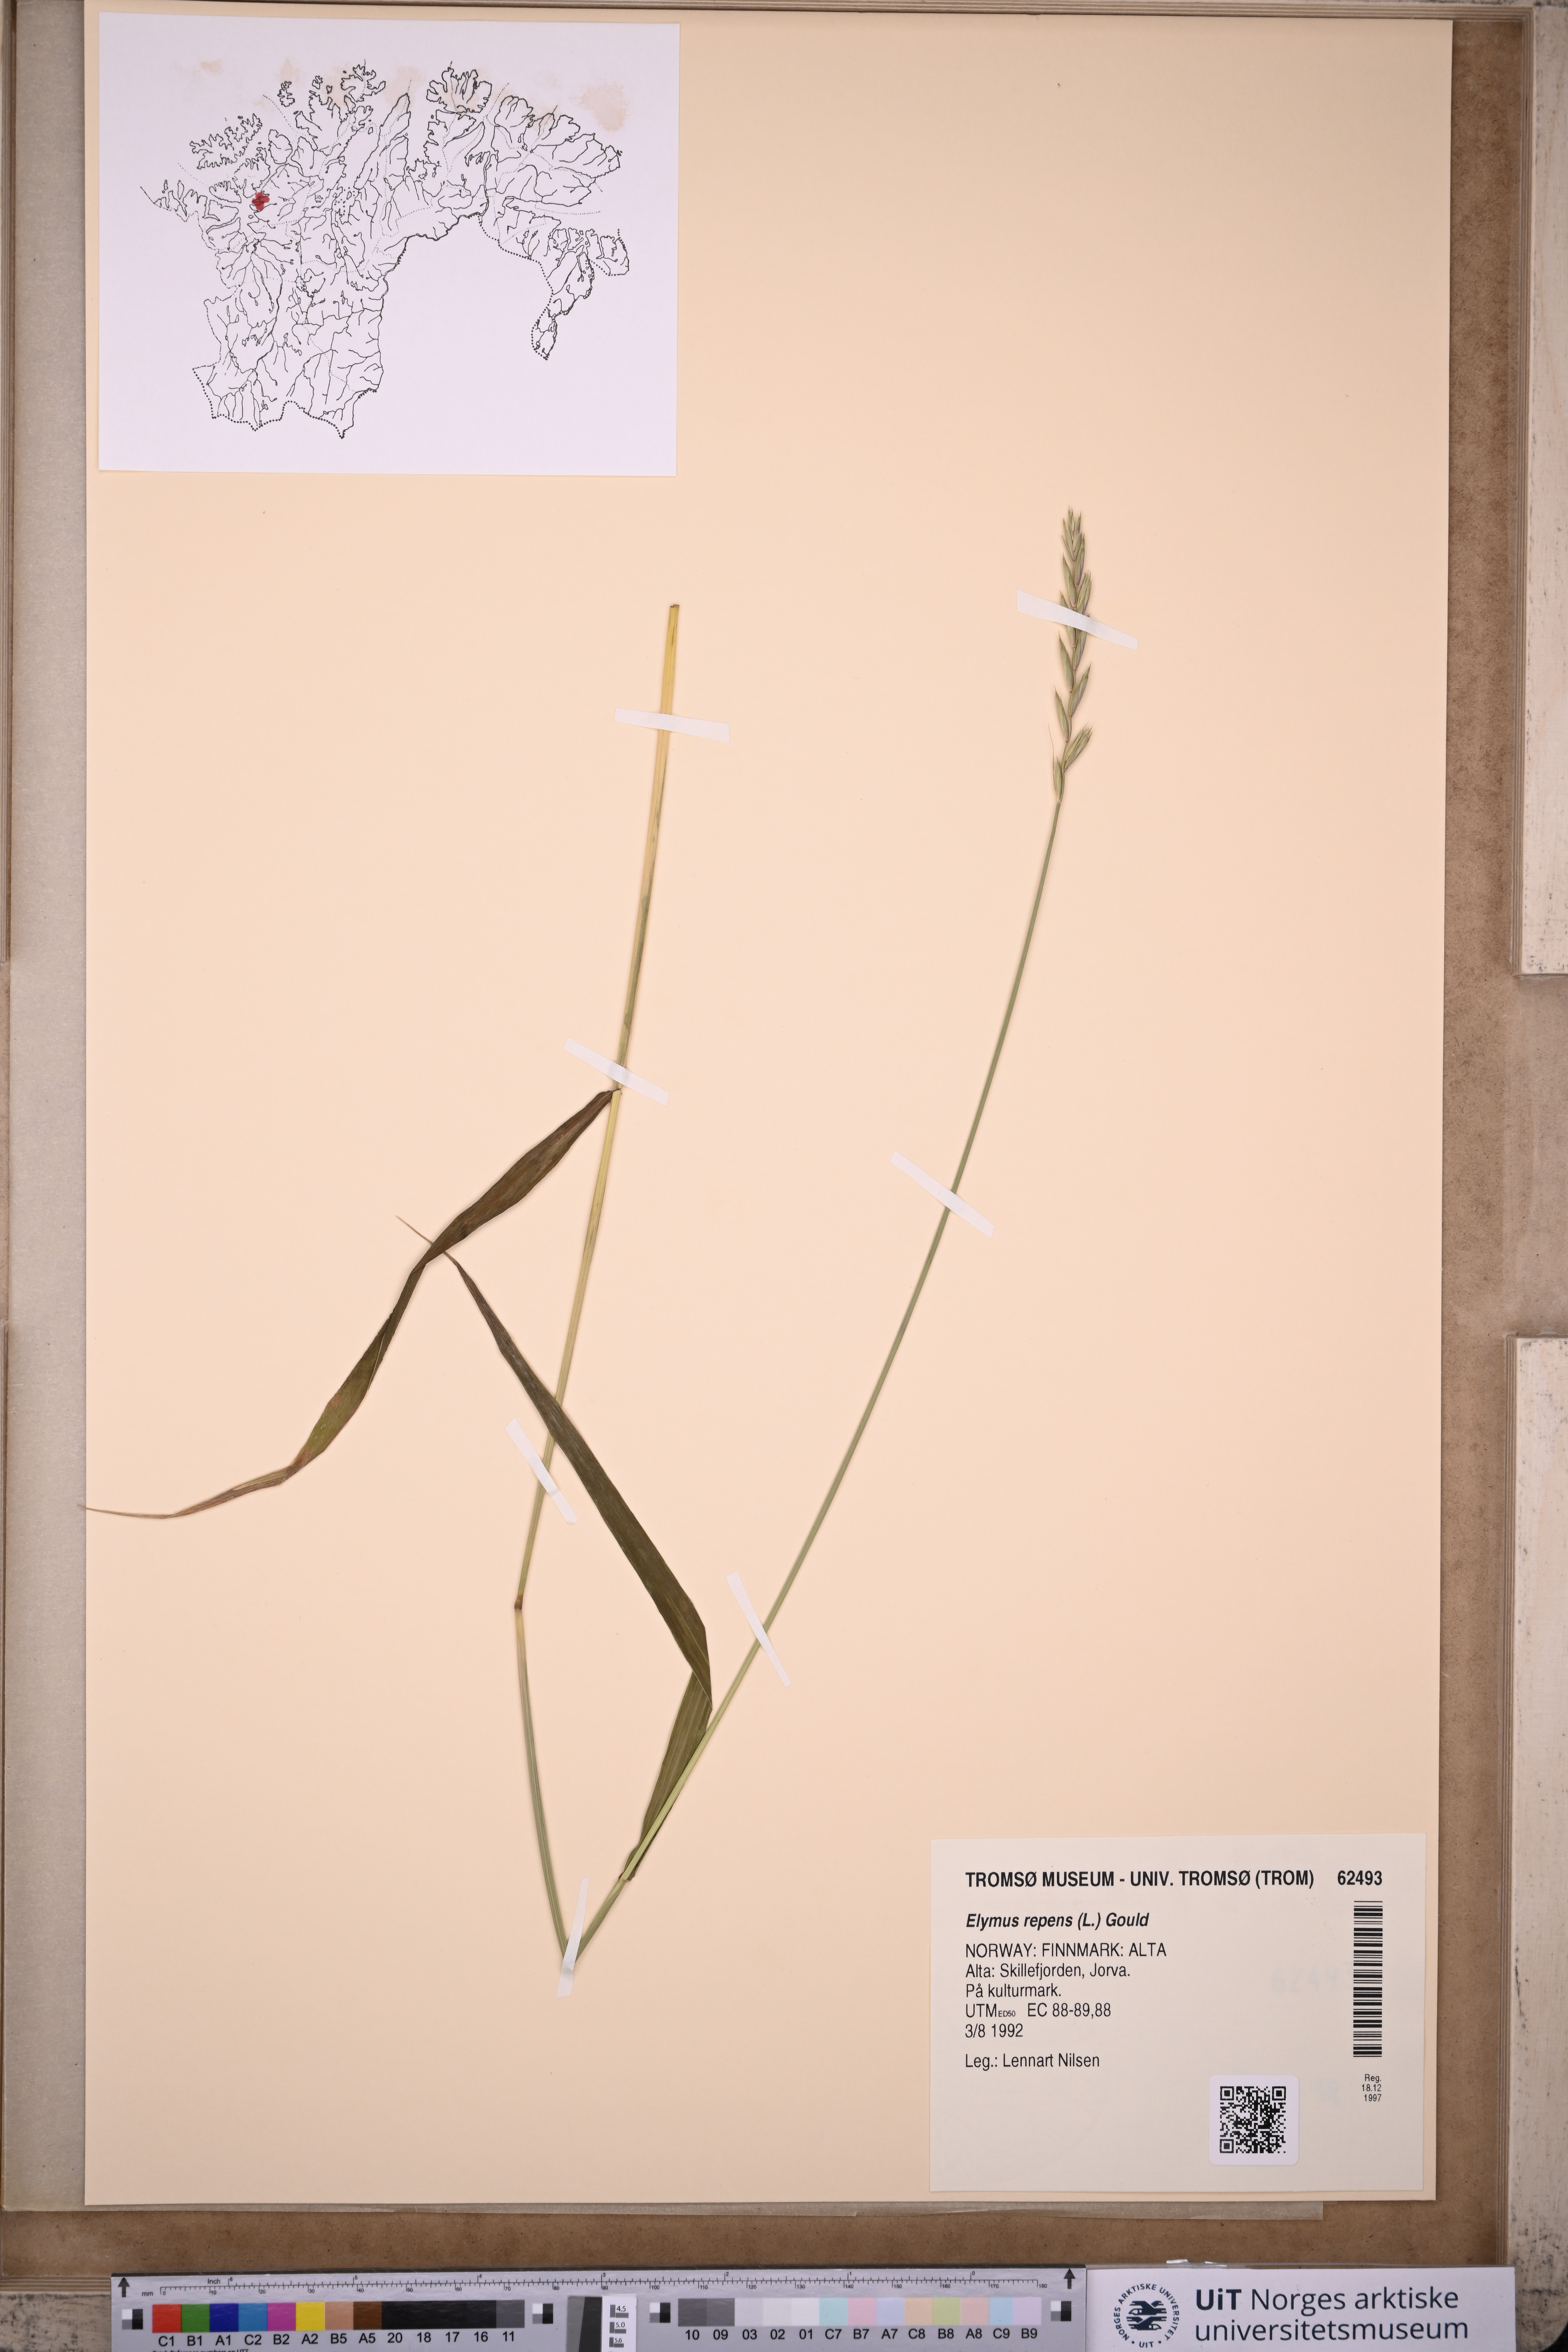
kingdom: Plantae
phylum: Tracheophyta
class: Liliopsida
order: Poales
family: Poaceae
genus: Elymus
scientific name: Elymus repens
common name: Quackgrass
